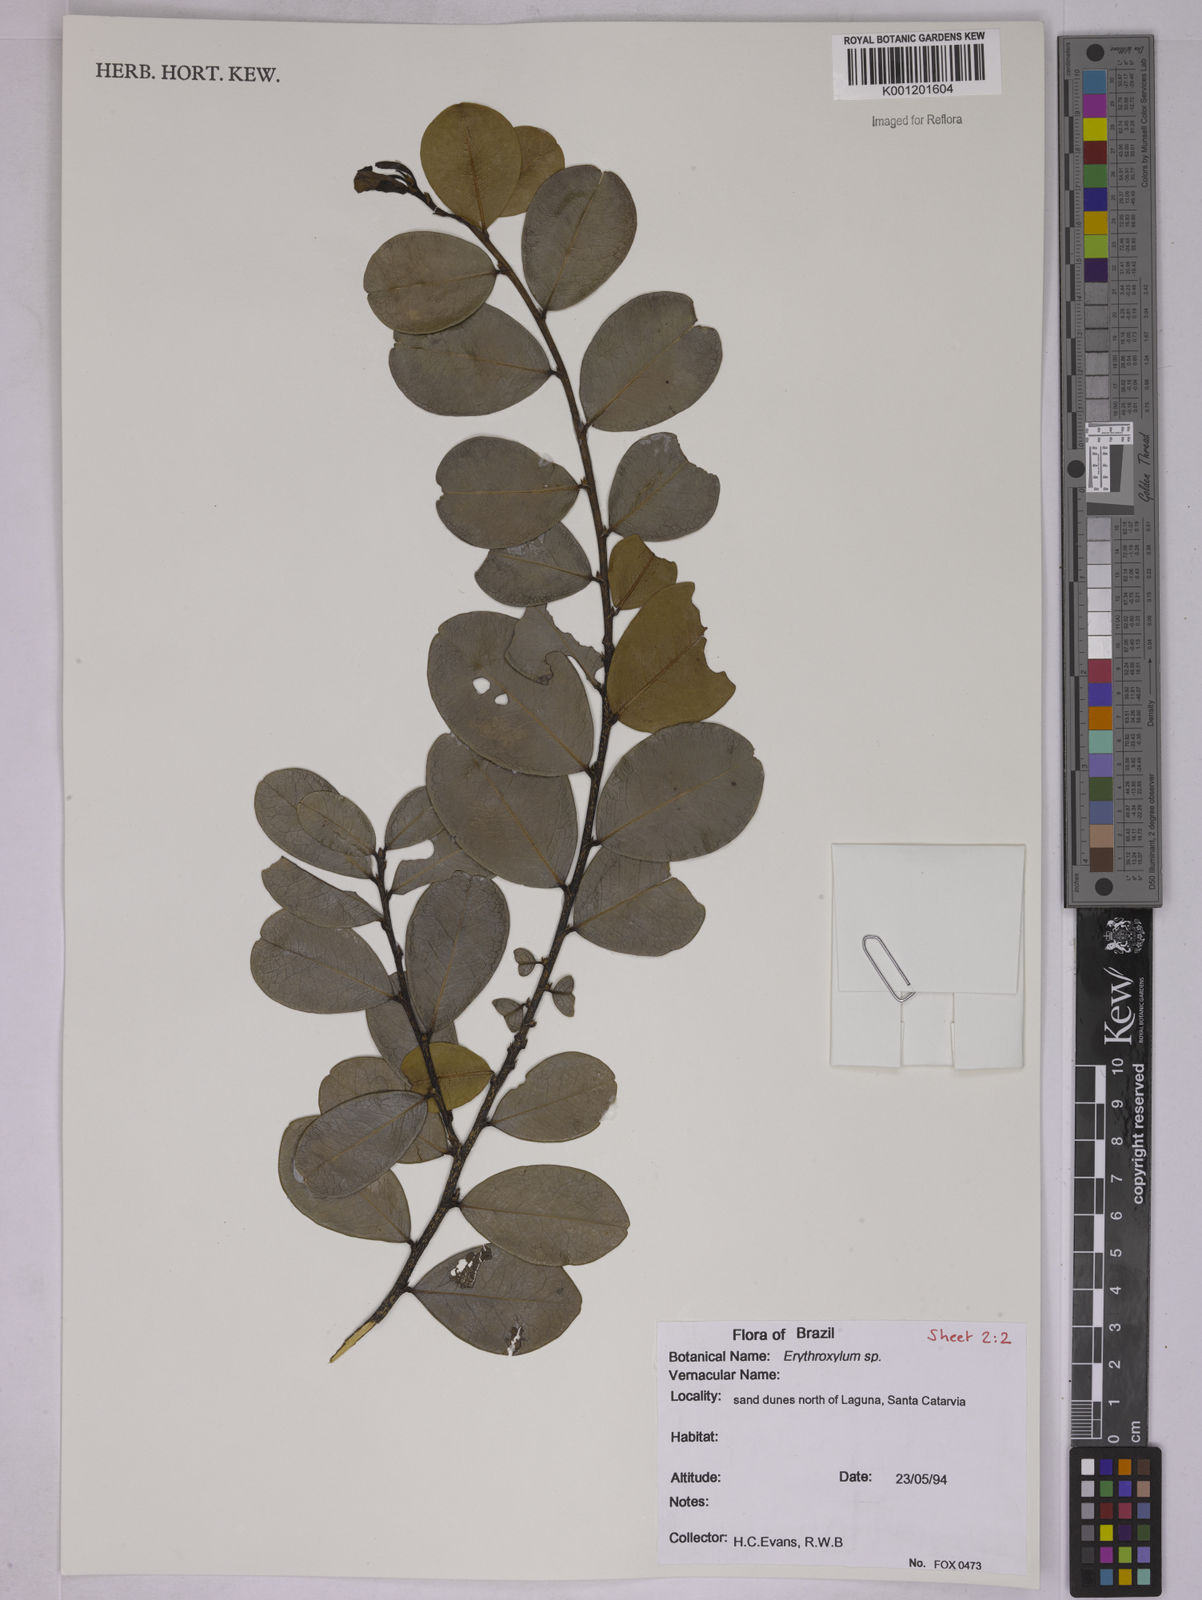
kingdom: Plantae
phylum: Tracheophyta
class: Magnoliopsida
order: Malpighiales
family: Erythroxylaceae
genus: Erythroxylum
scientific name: Erythroxylum
